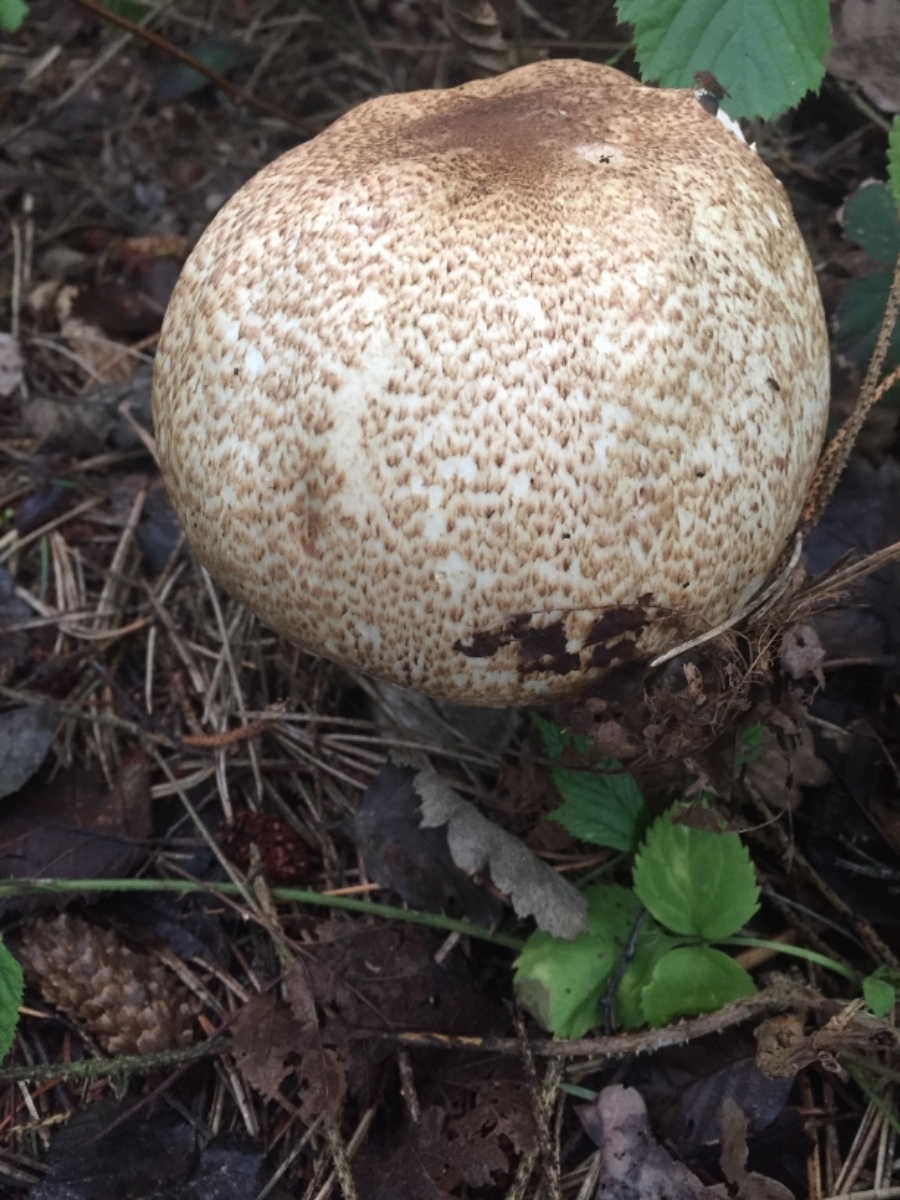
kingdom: Fungi
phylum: Basidiomycota
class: Agaricomycetes
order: Agaricales
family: Agaricaceae
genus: Agaricus
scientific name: Agaricus augustus
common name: prægtig champignon
